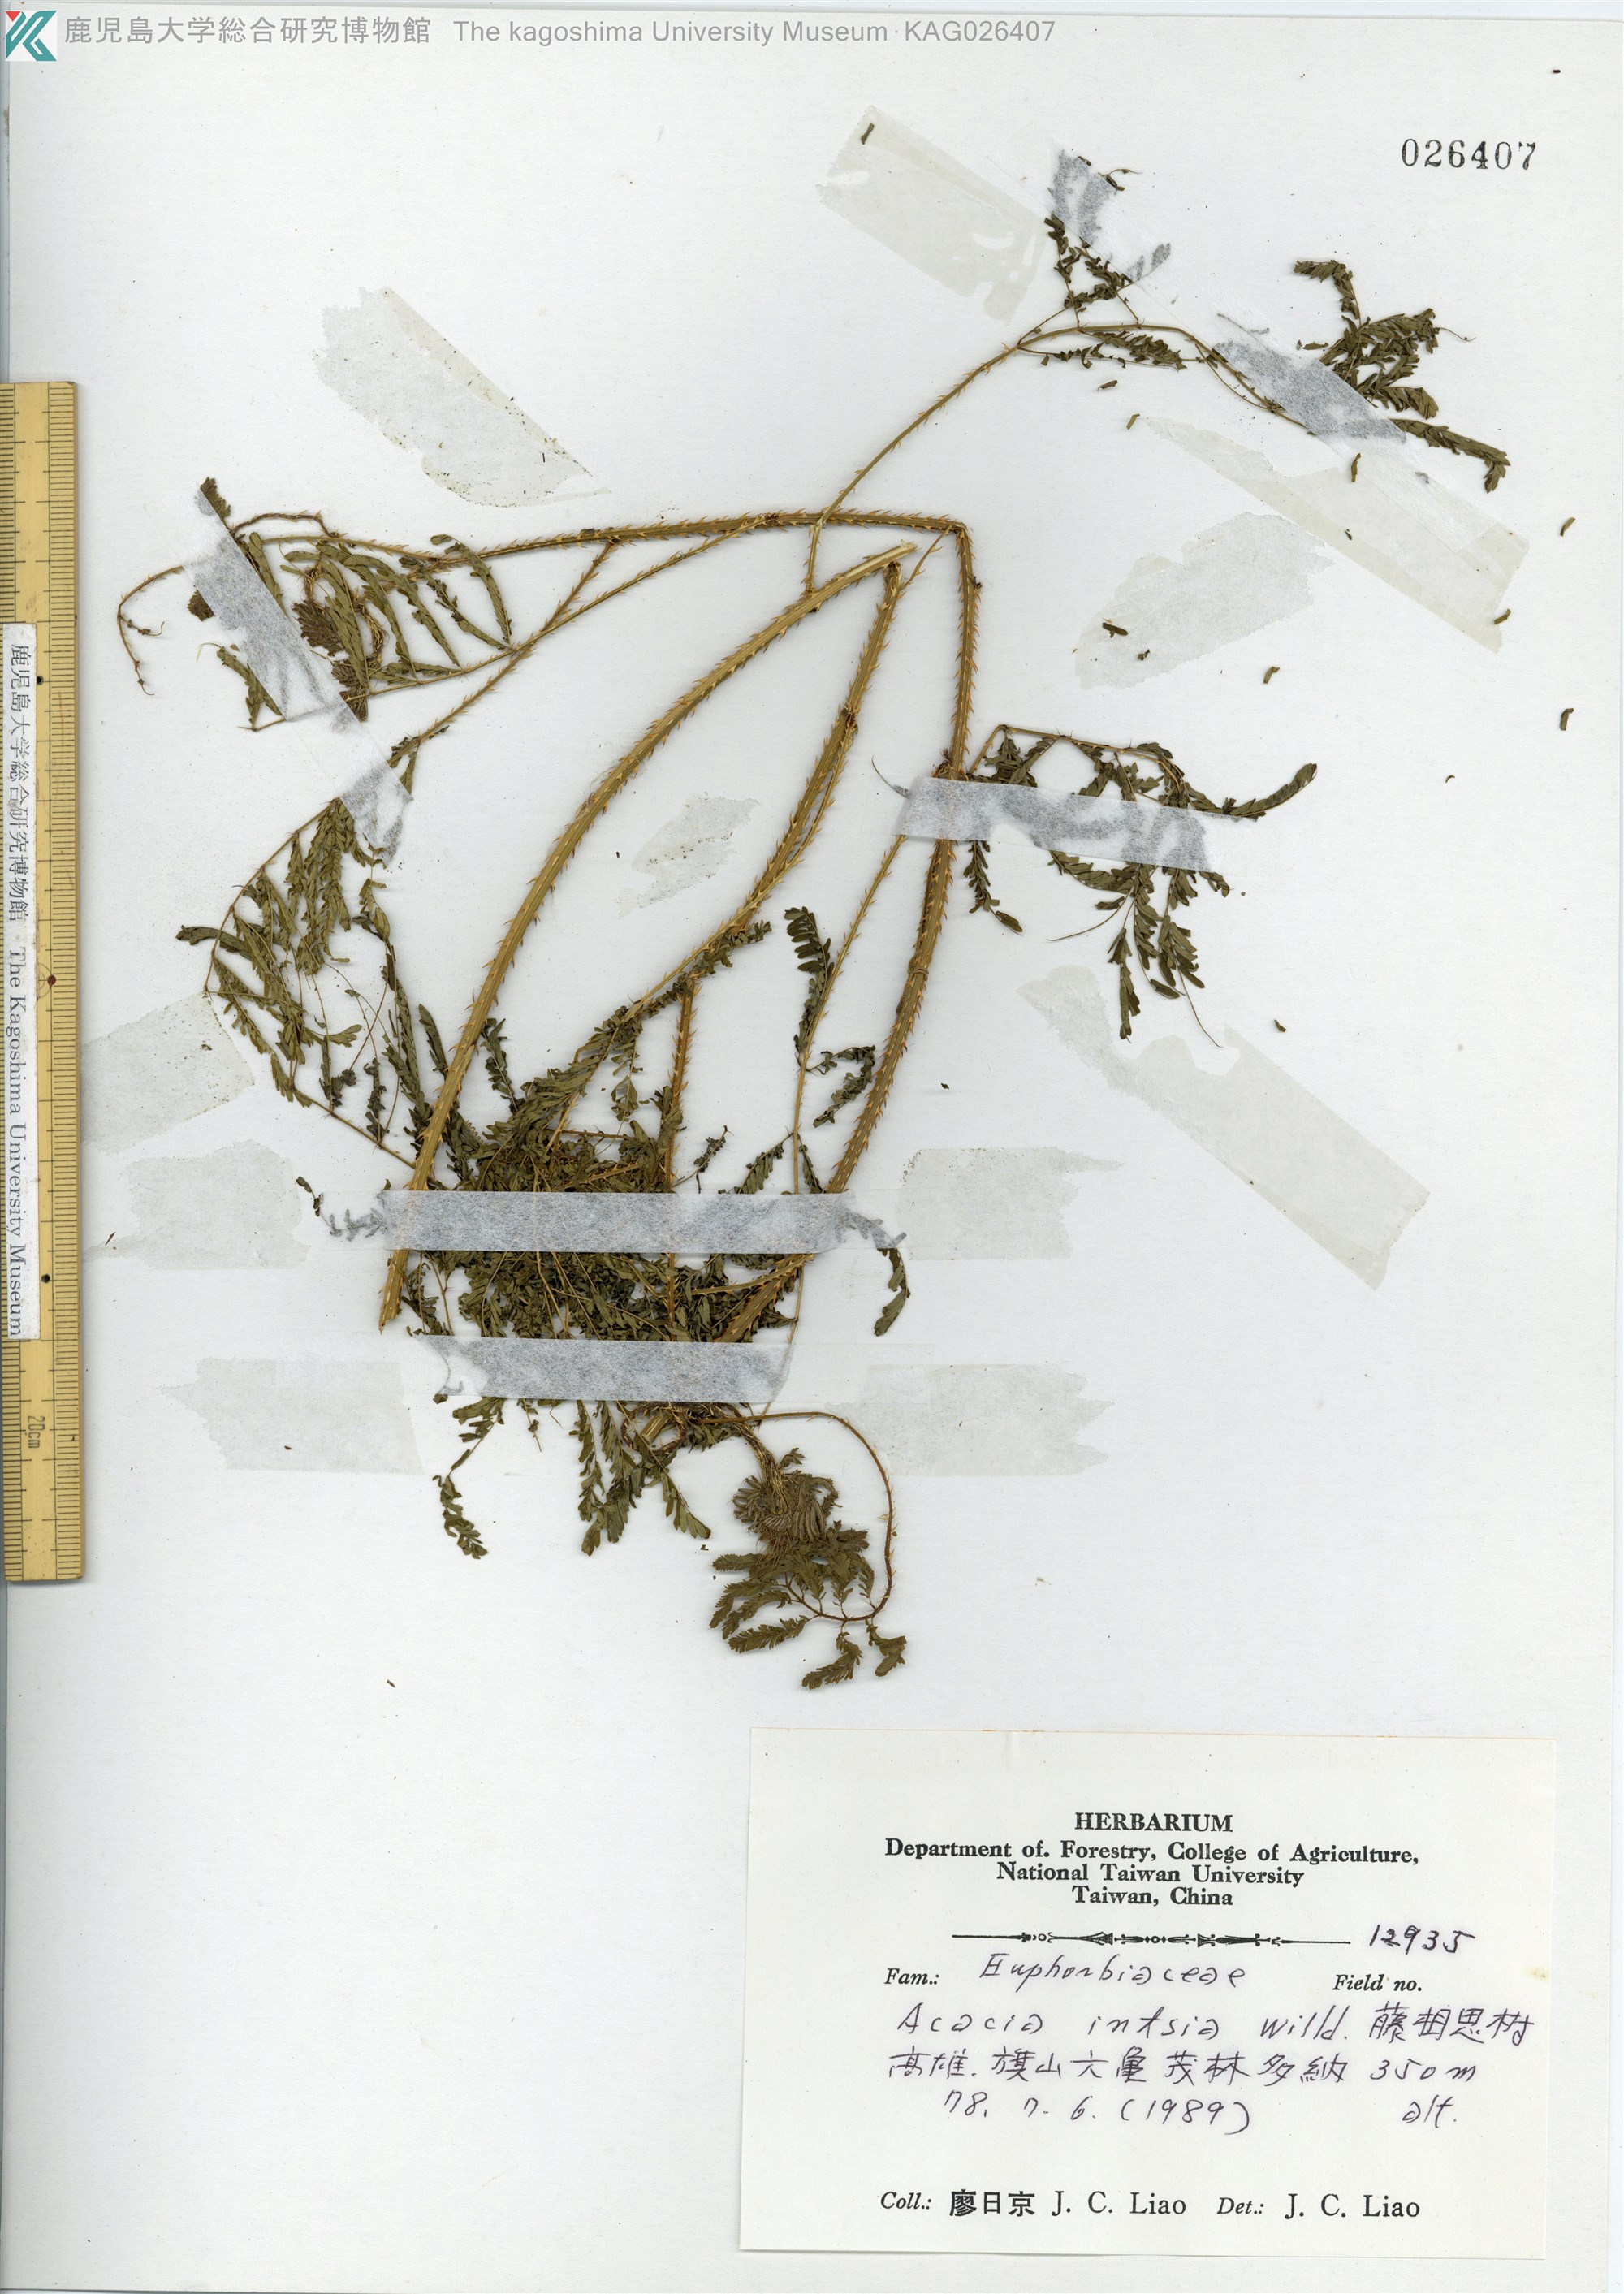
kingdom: Plantae
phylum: Tracheophyta
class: Magnoliopsida
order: Fabales
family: Fabaceae
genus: Senegalia
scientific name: Senegalia intsia
